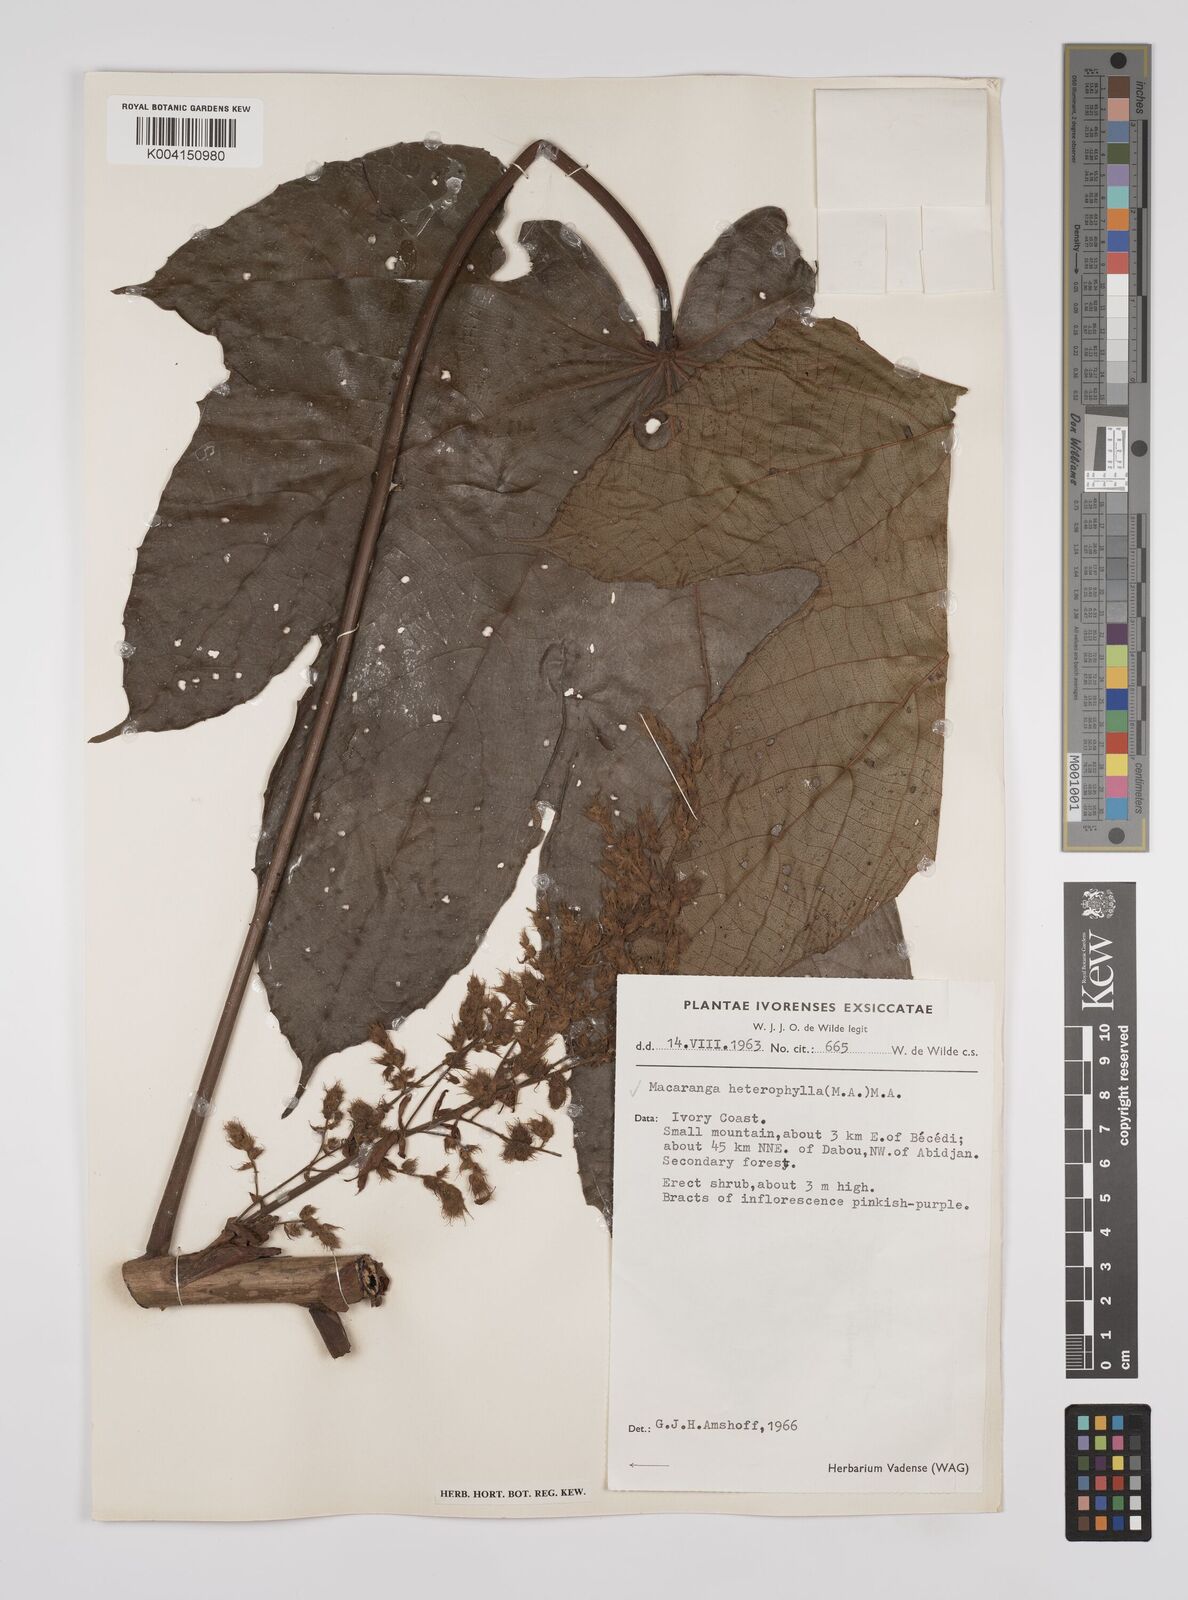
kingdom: Plantae
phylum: Tracheophyta
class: Magnoliopsida
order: Malpighiales
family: Euphorbiaceae
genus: Macaranga
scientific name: Macaranga heterophylla
